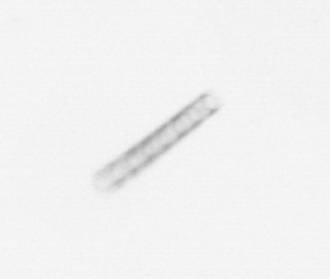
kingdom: Chromista
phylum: Ochrophyta
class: Bacillariophyceae
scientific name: Bacillariophyceae
